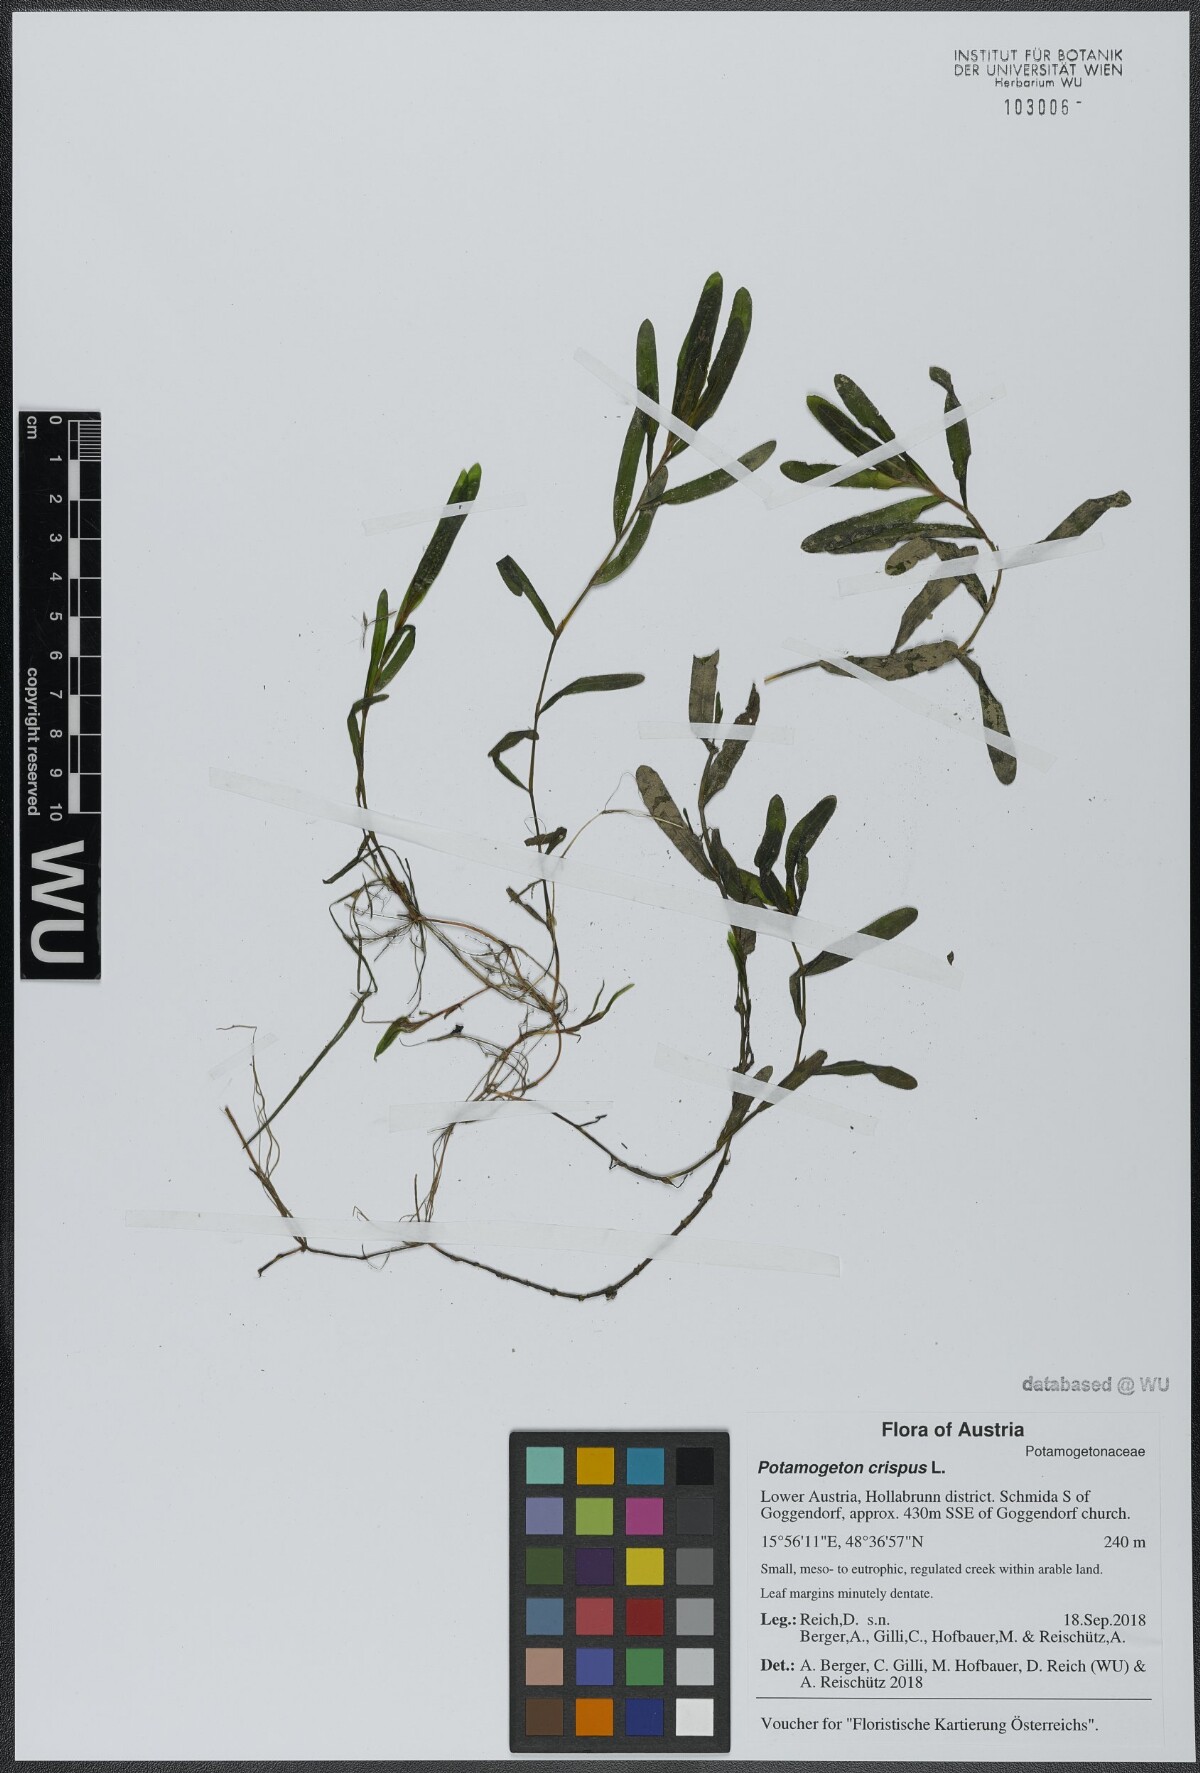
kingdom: Plantae
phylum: Tracheophyta
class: Liliopsida
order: Alismatales
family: Potamogetonaceae
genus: Potamogeton
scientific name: Potamogeton crispus
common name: Curled pondweed
